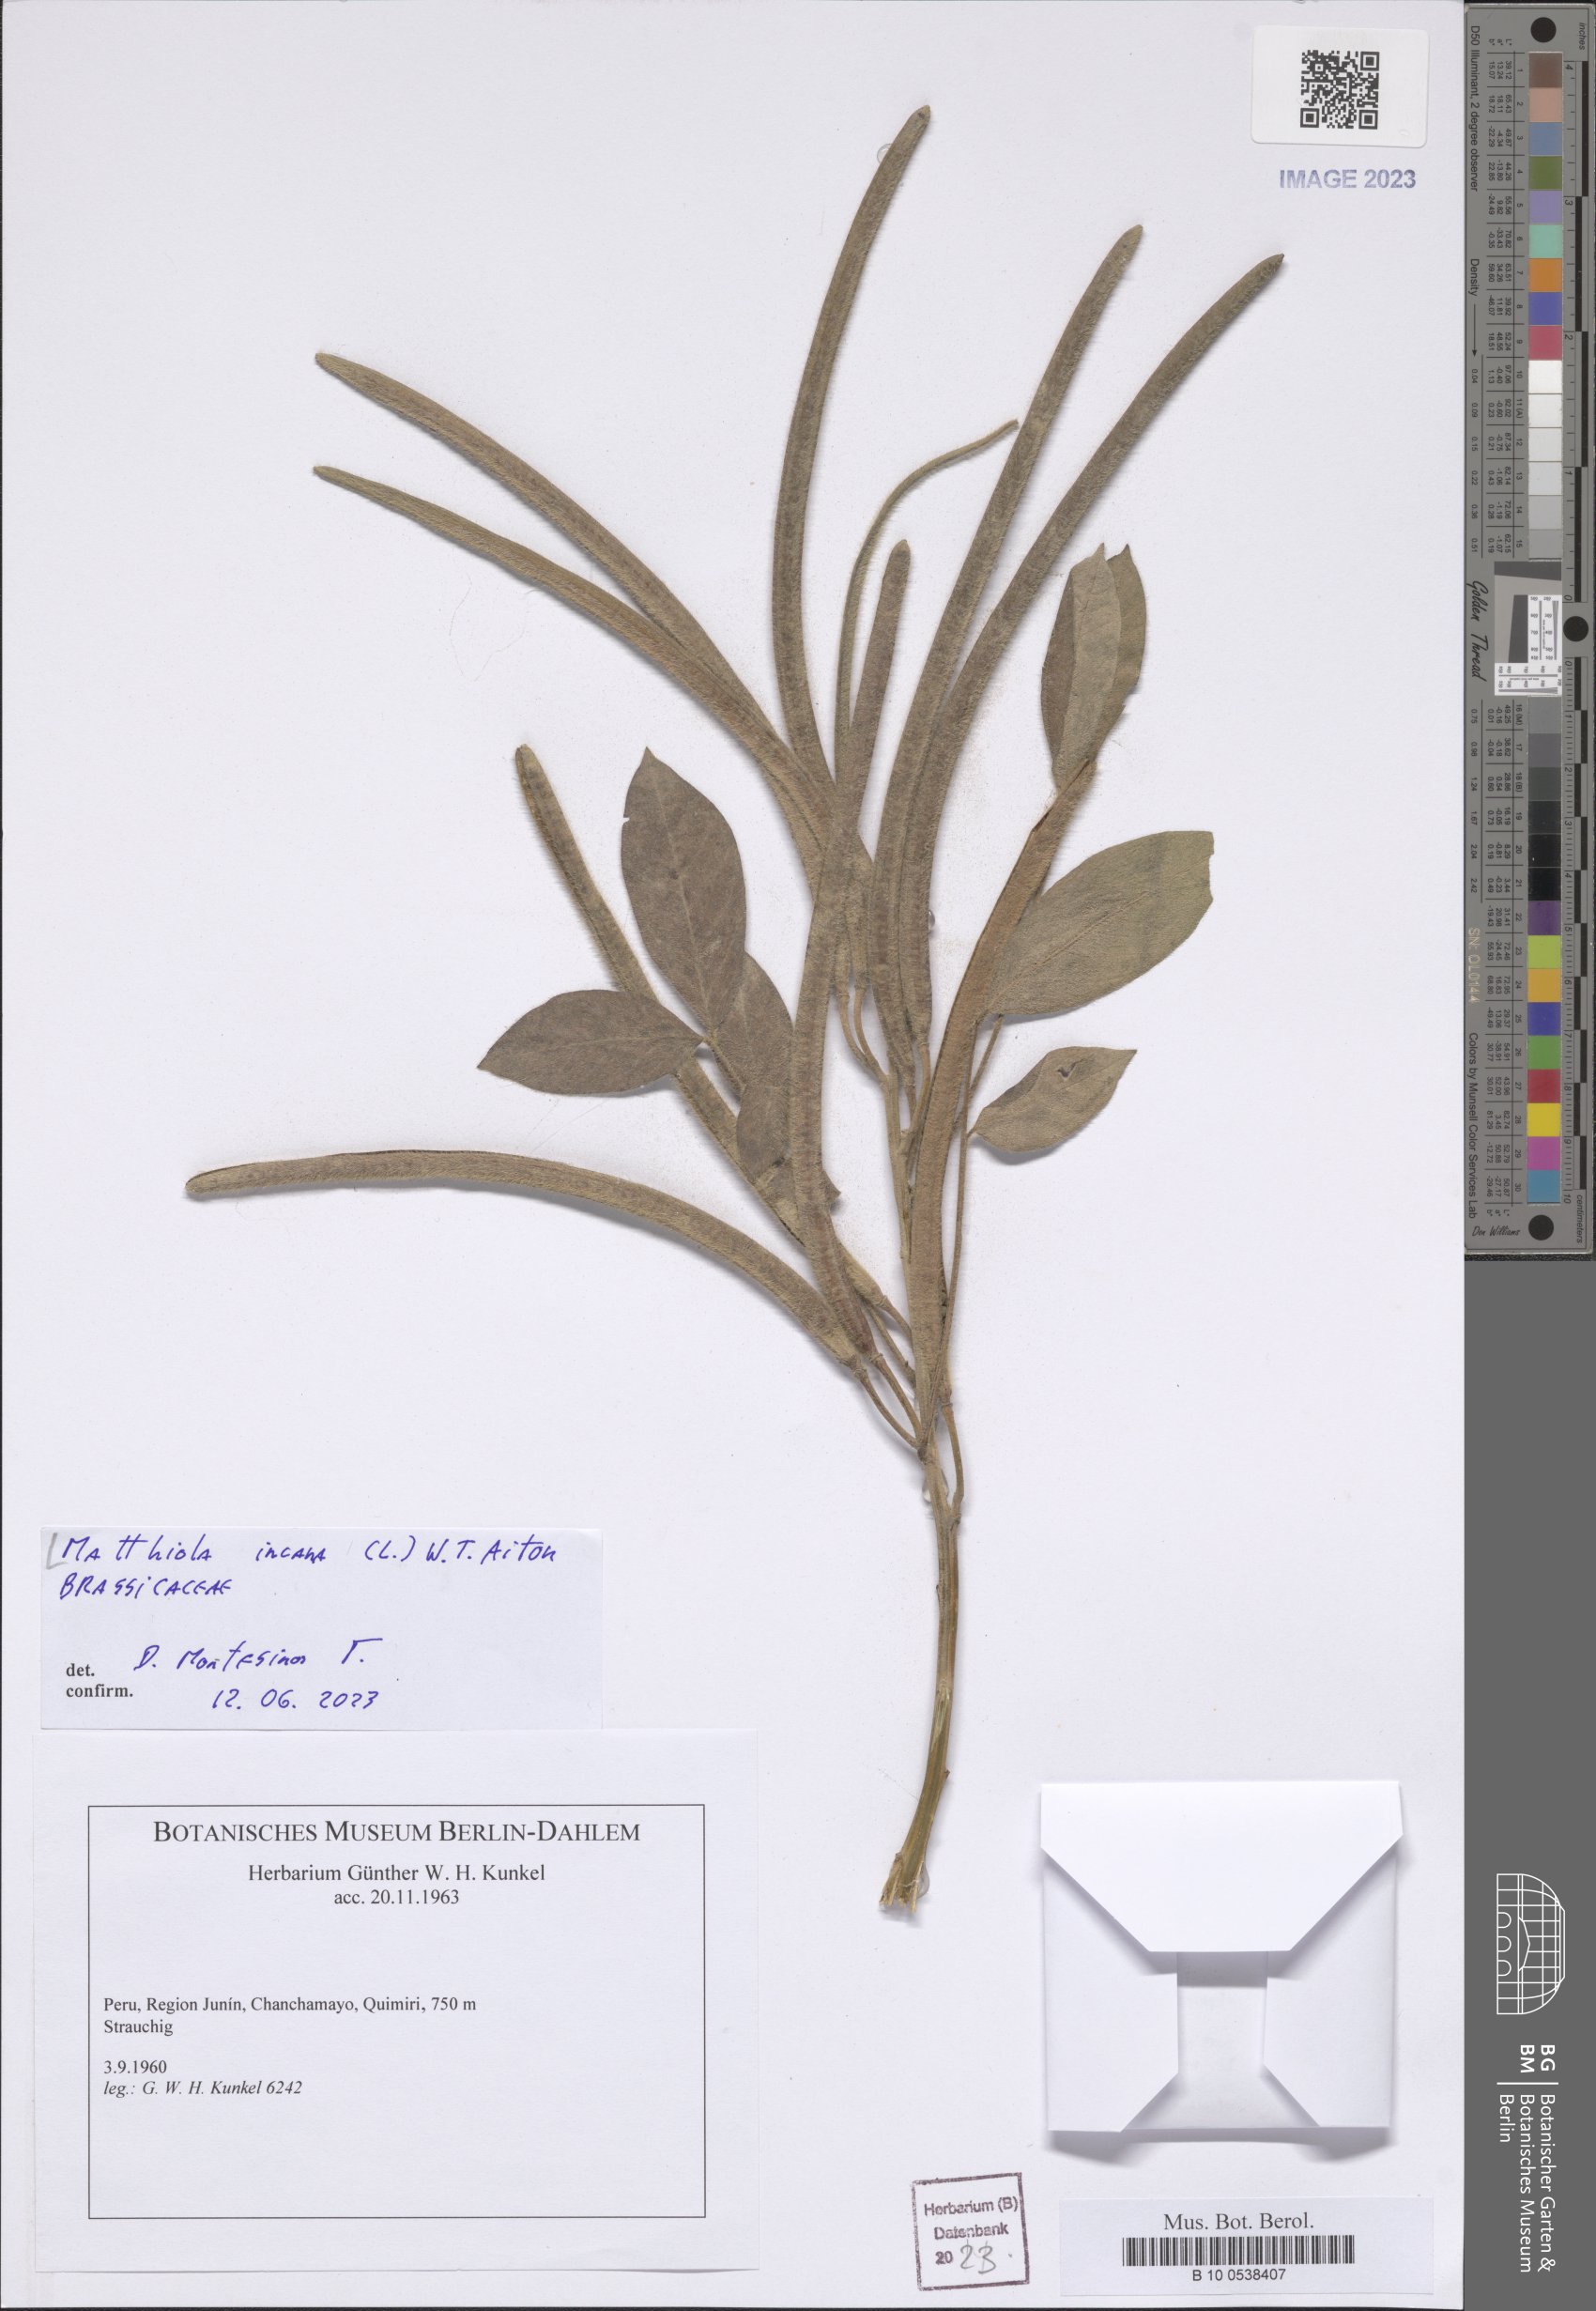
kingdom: Plantae
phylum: Tracheophyta
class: Magnoliopsida
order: Brassicales
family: Brassicaceae
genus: Matthiola
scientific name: Matthiola incana
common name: Hoary stock
